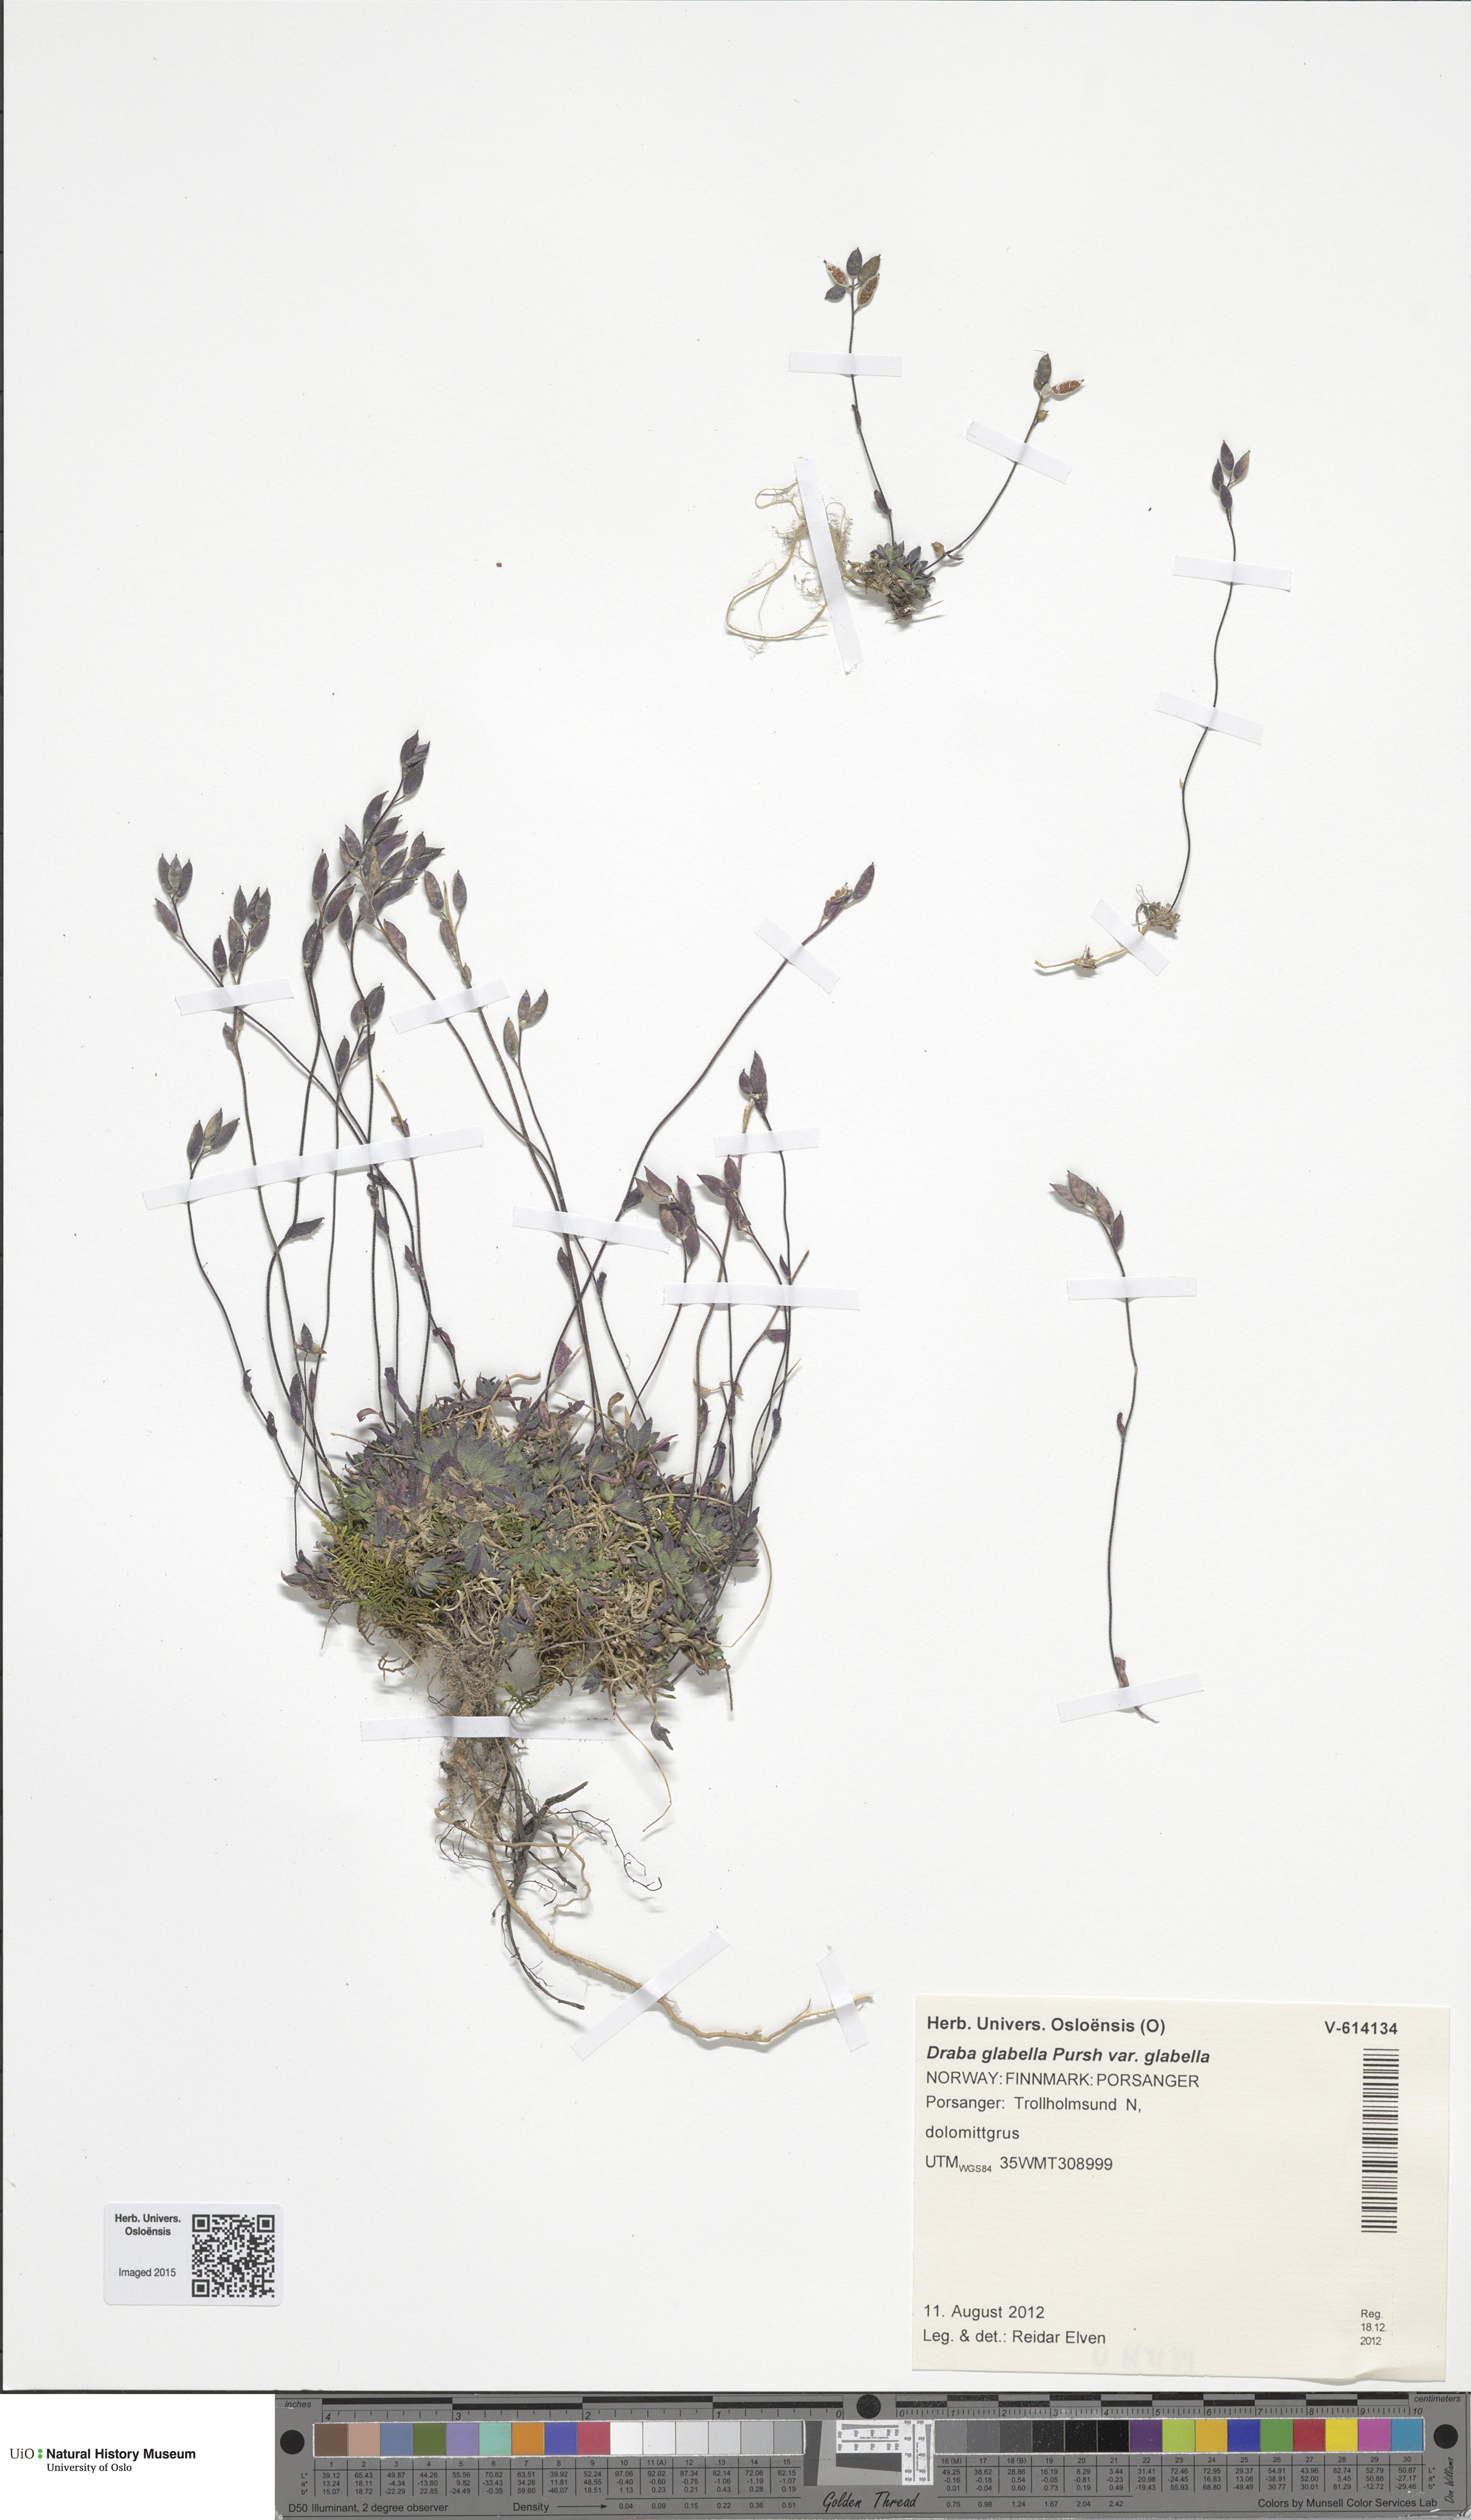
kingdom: Plantae
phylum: Tracheophyta
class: Magnoliopsida
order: Brassicales
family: Brassicaceae
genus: Draba
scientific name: Draba glabella
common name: Glaucous draba
